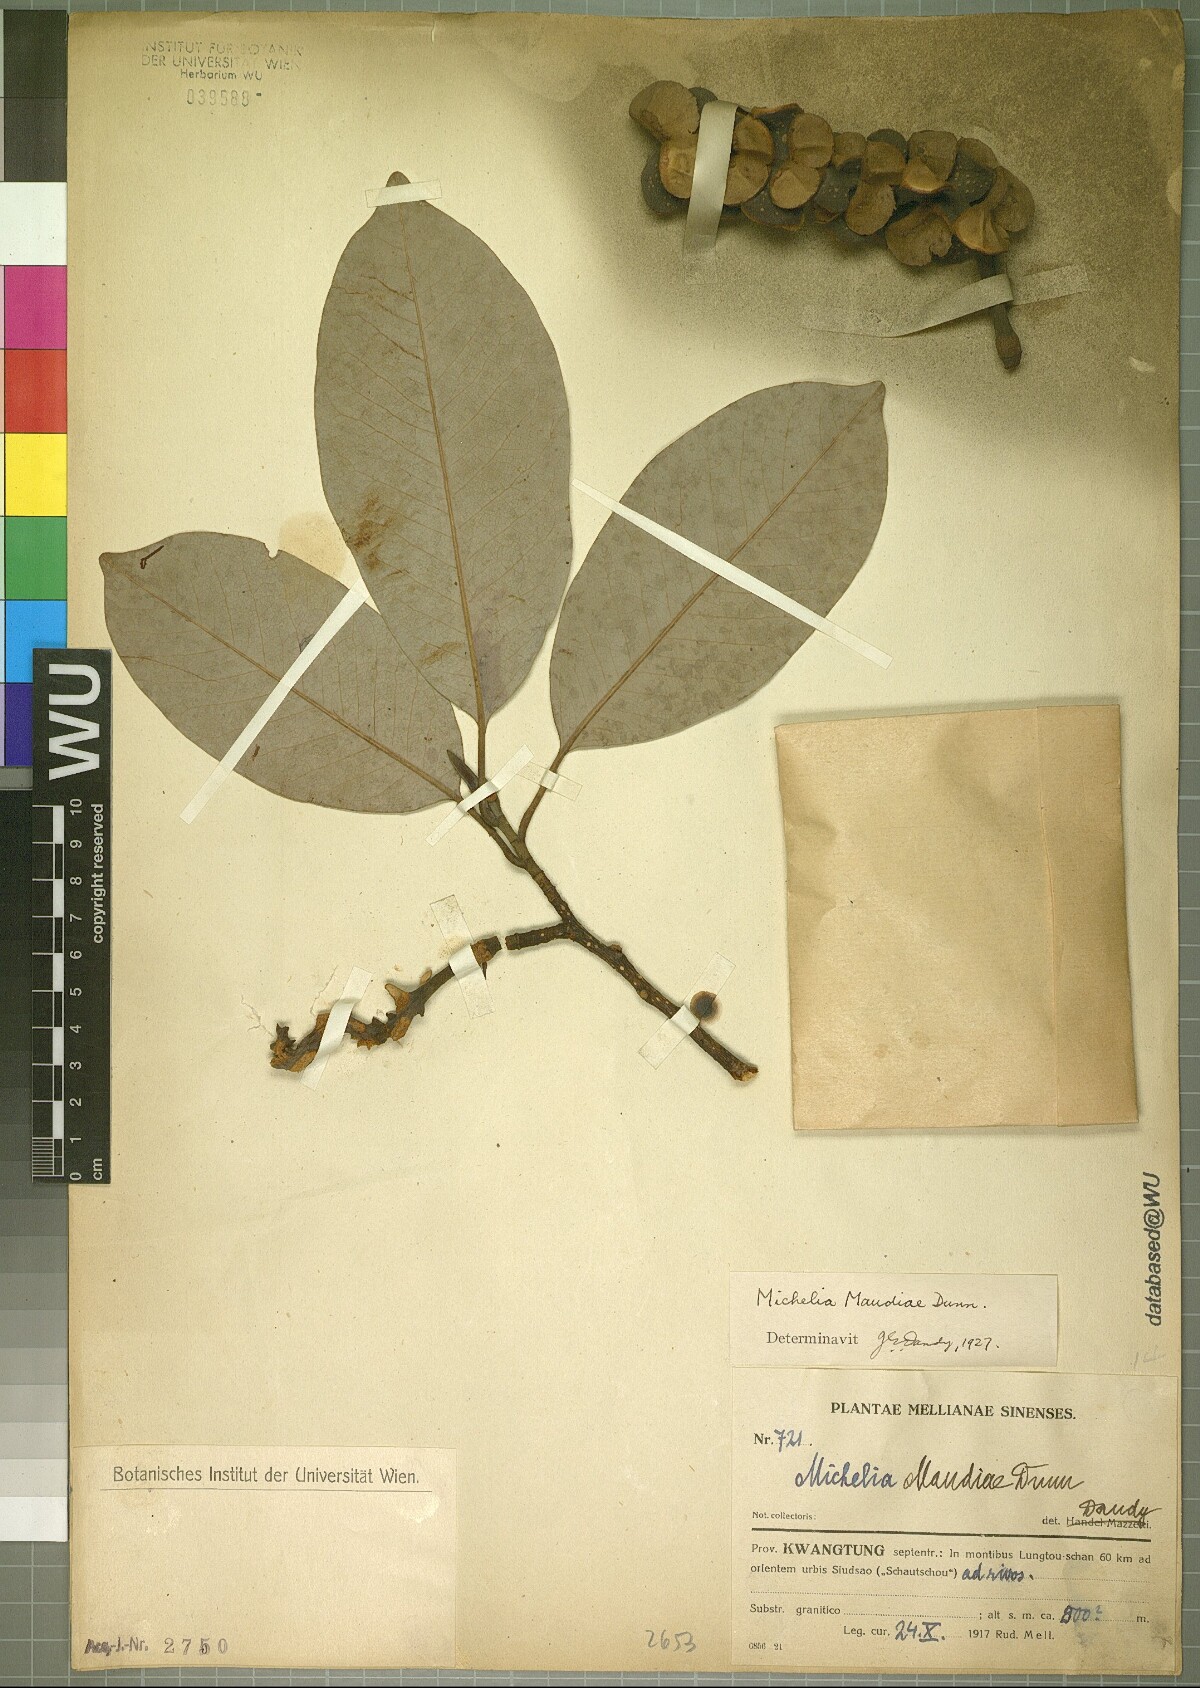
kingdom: Plantae
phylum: Tracheophyta
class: Magnoliopsida
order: Magnoliales
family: Magnoliaceae
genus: Magnolia
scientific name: Magnolia maudiae
